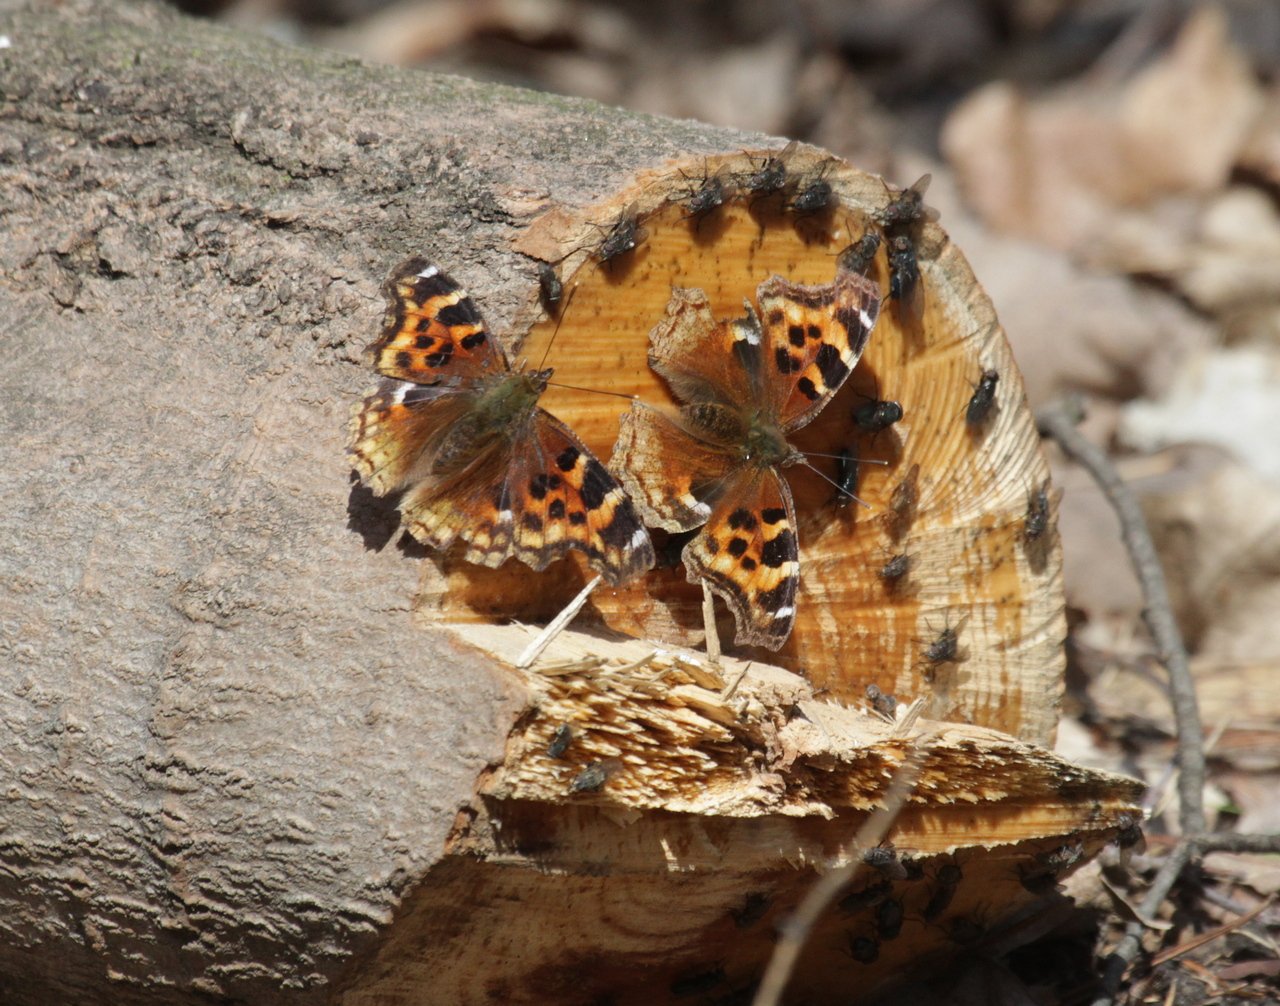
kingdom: Animalia
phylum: Arthropoda
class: Insecta
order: Lepidoptera
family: Nymphalidae
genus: Polygonia
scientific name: Polygonia vaualbum
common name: Compton Tortoiseshell
